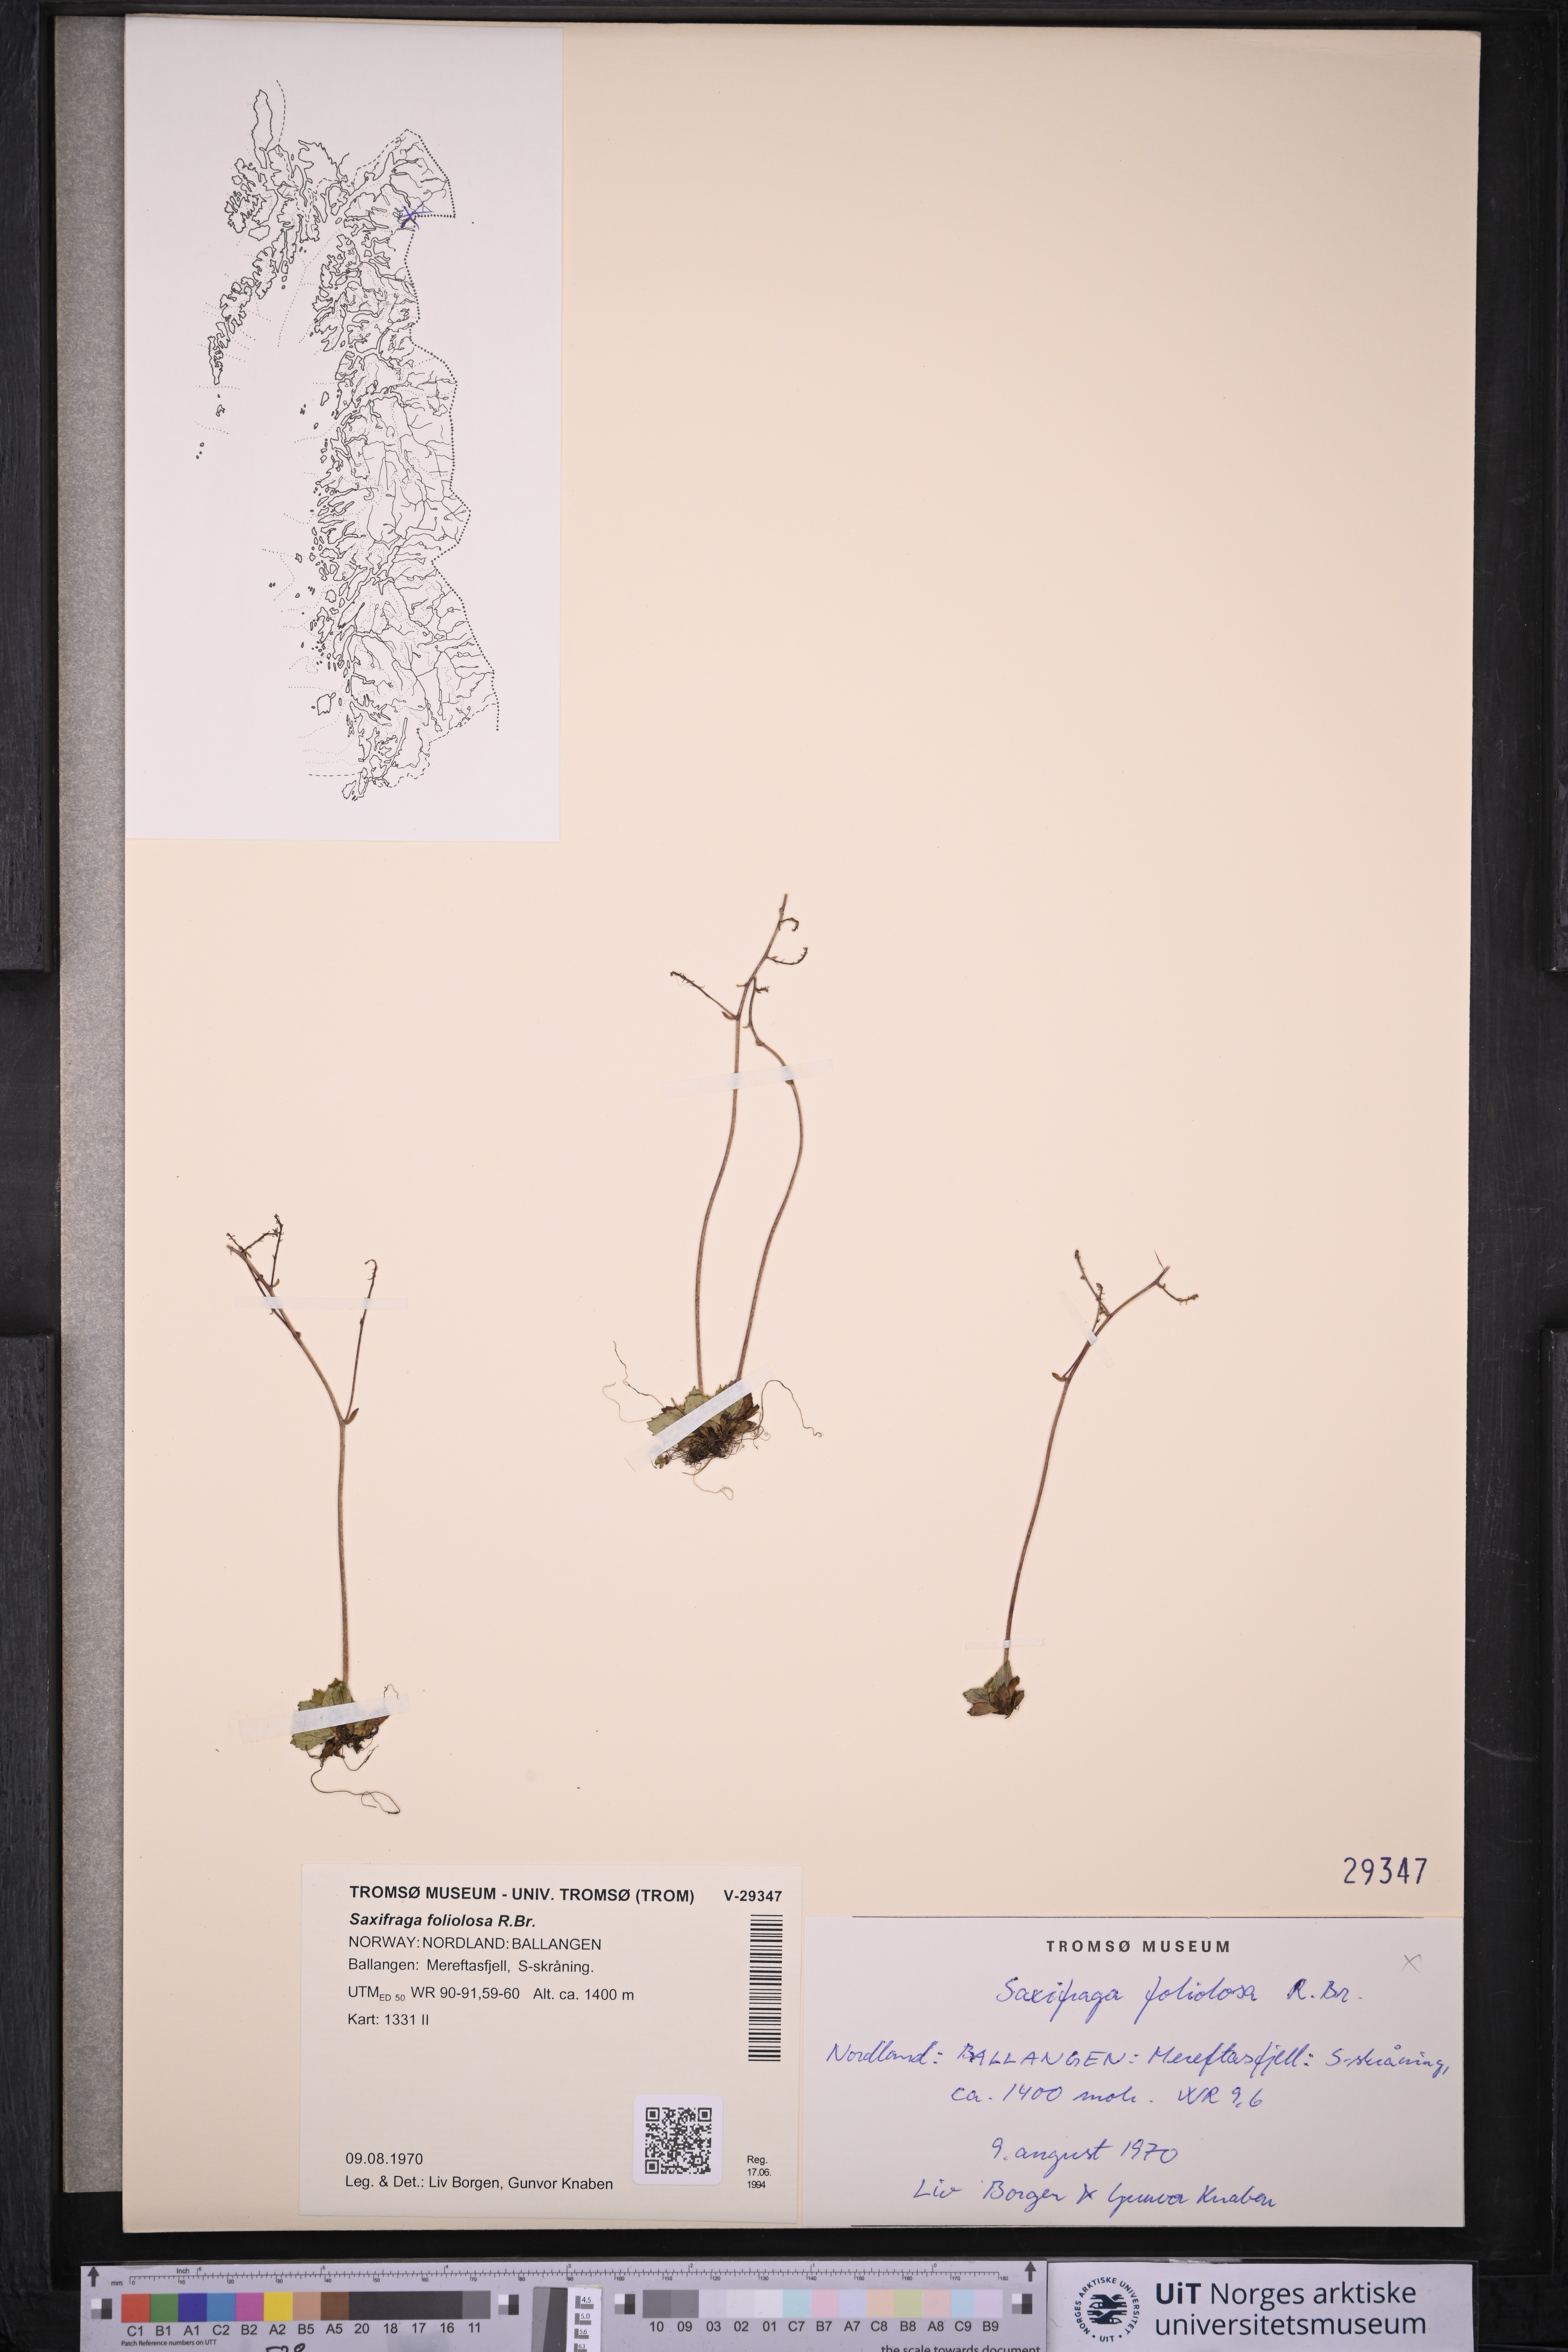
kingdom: Plantae
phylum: Tracheophyta
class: Magnoliopsida
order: Saxifragales
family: Saxifragaceae
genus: Micranthes
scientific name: Micranthes foliolosa
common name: Leafystem saxifrage
